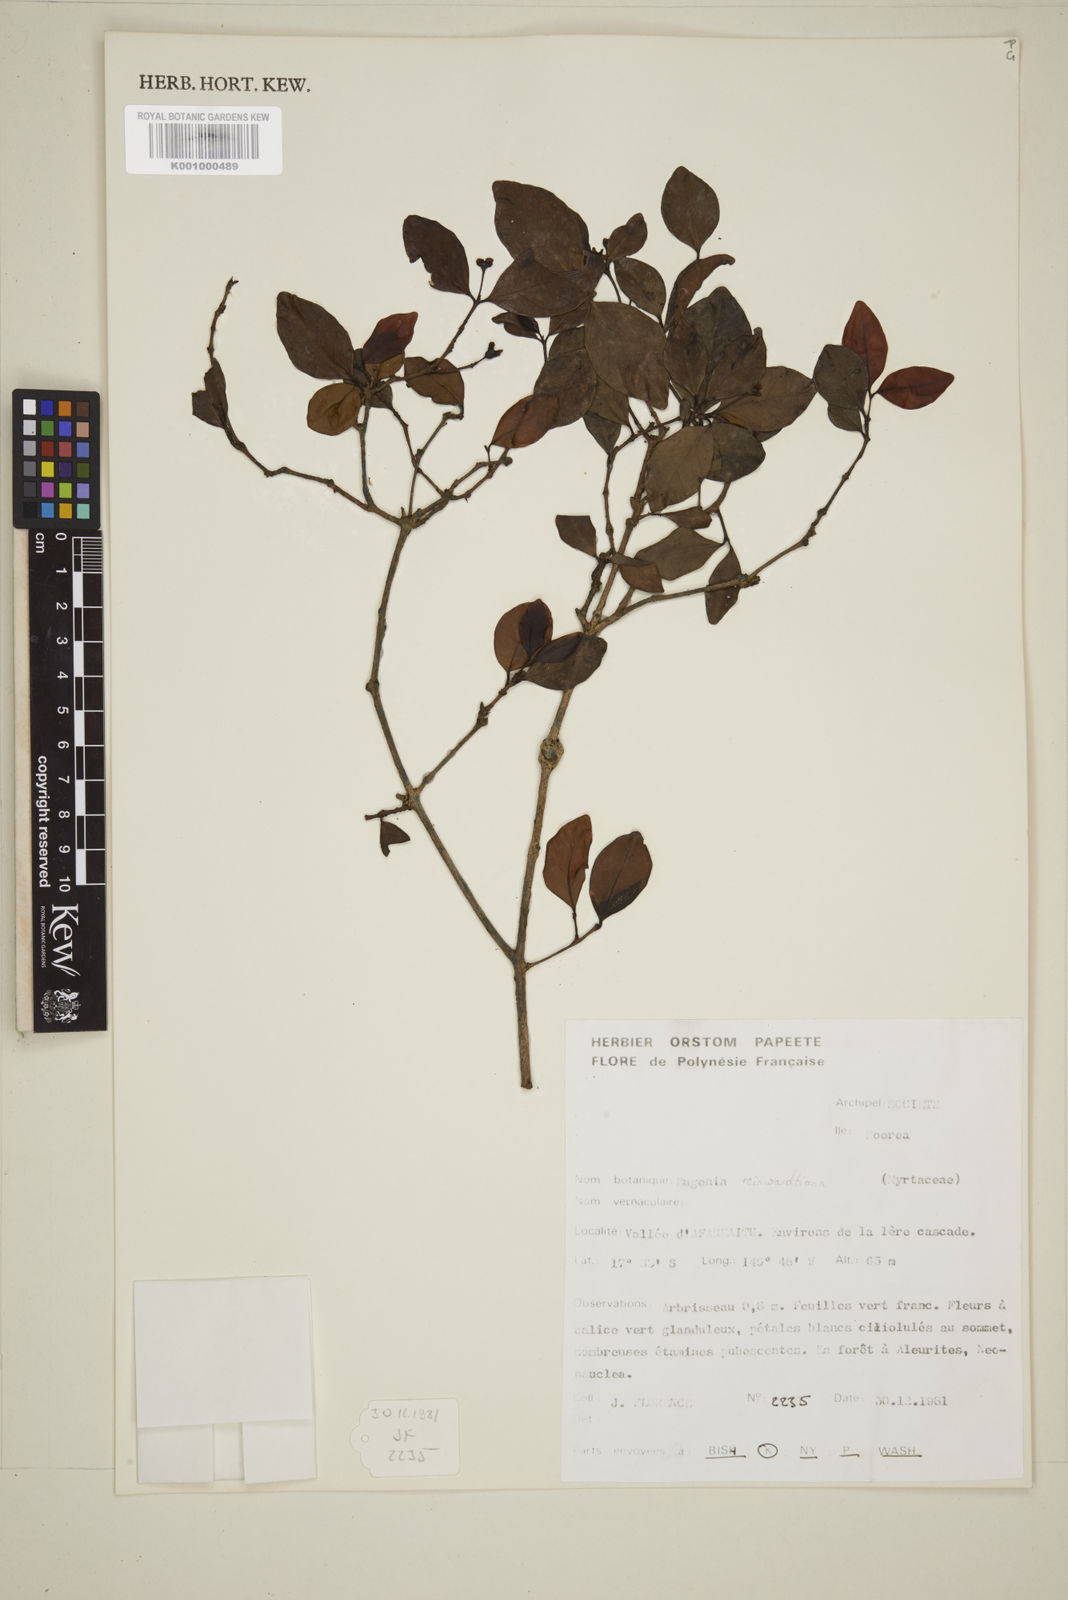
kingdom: Plantae
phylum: Tracheophyta
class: Magnoliopsida
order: Myrtales
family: Myrtaceae
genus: Eugenia
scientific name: Eugenia reinwardtiana
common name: Cedar bay-cherry
